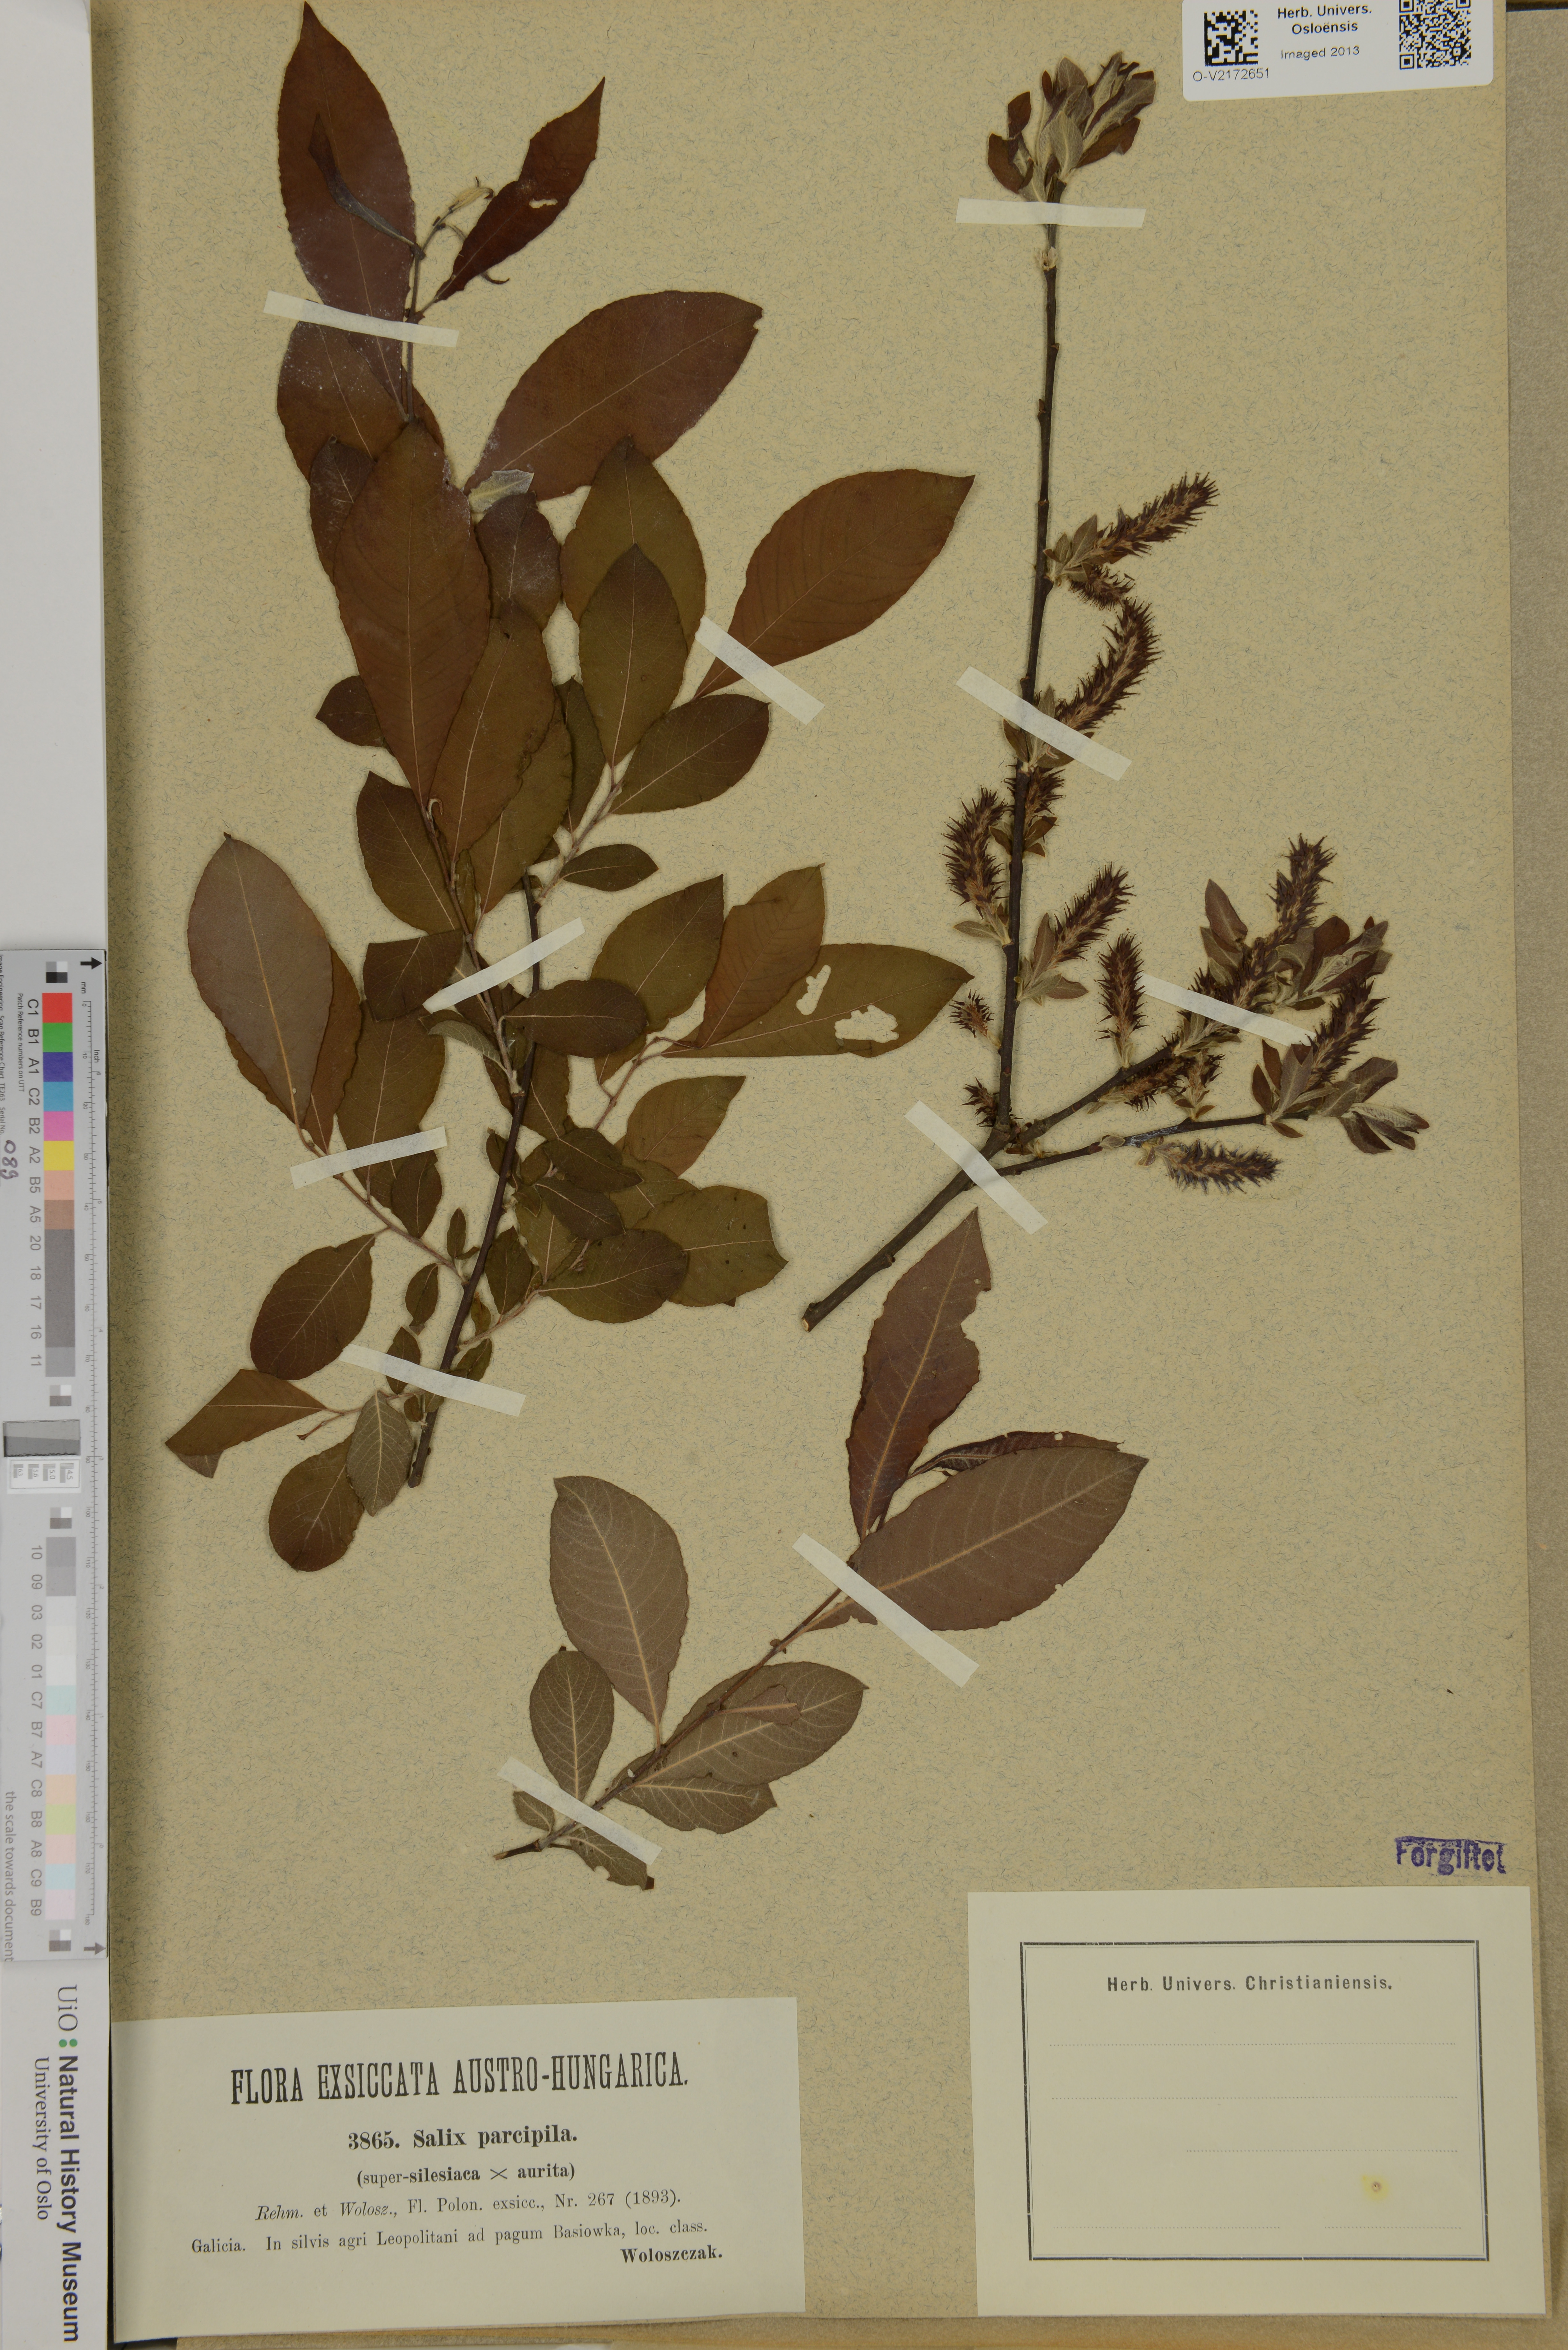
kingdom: Plantae
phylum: Tracheophyta
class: Magnoliopsida
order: Malpighiales
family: Salicaceae
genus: Salix
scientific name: Salix silesiaca
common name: Silesian willow
